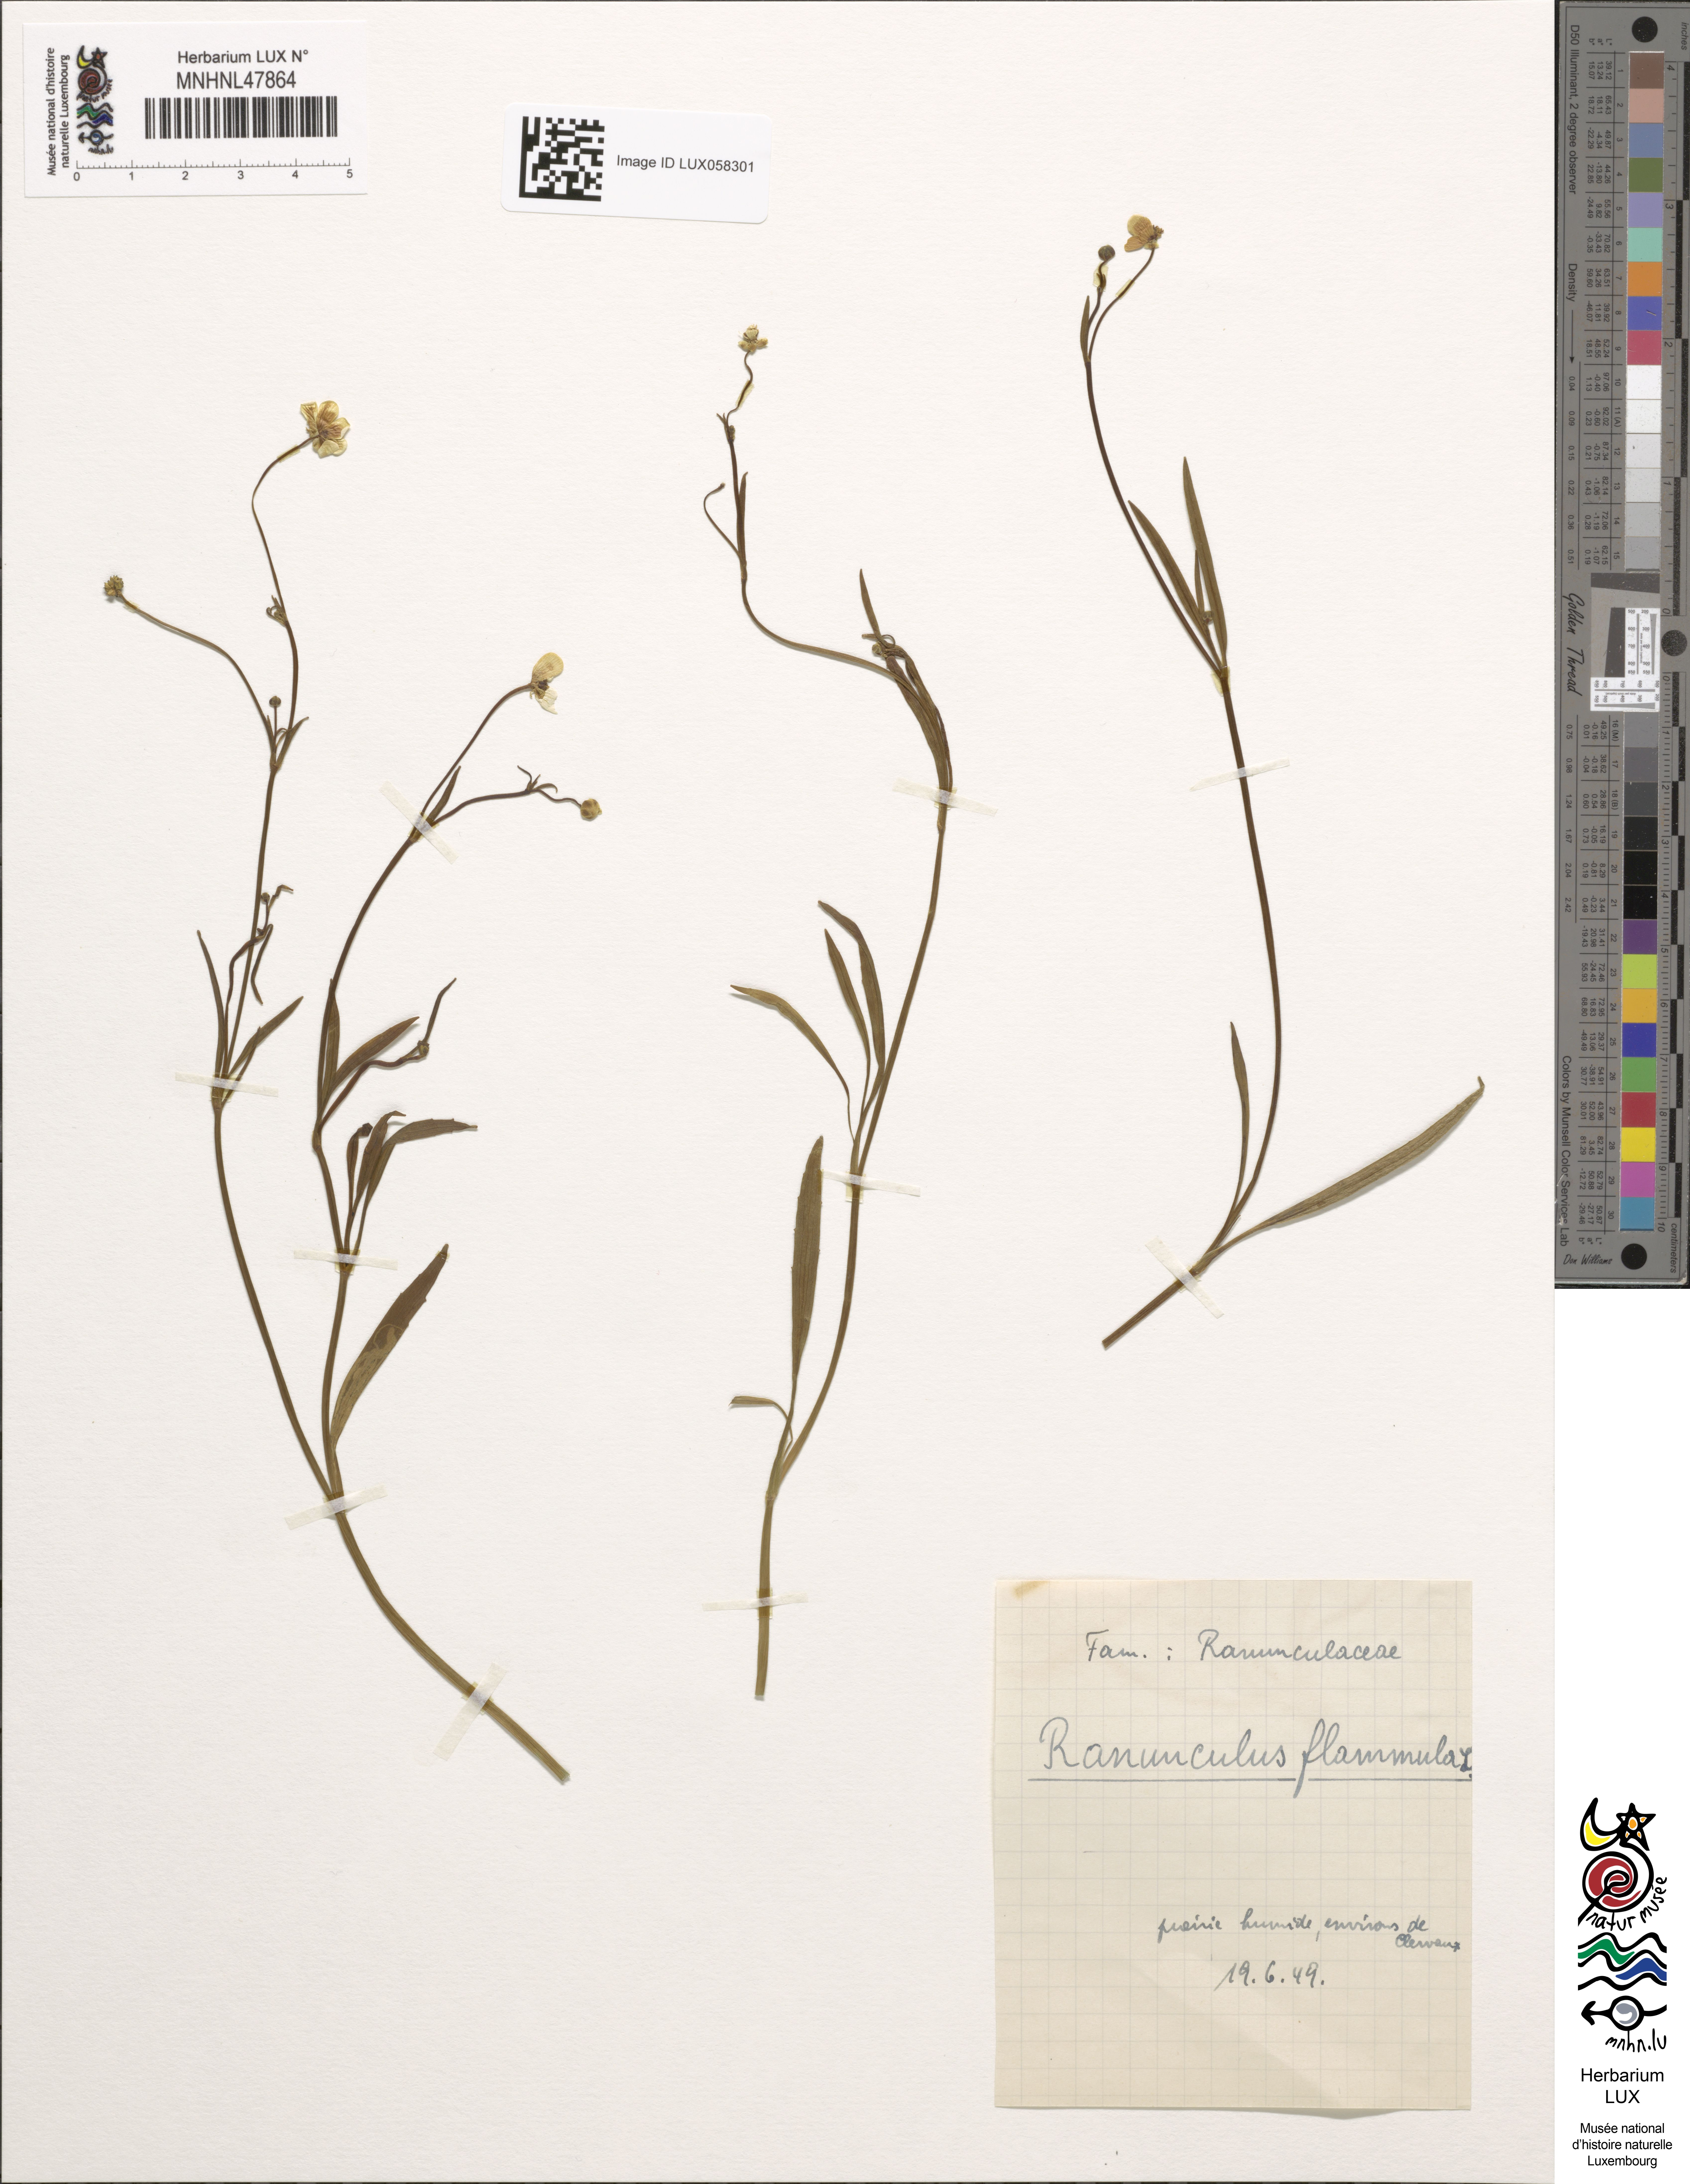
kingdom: Plantae
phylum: Tracheophyta
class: Magnoliopsida
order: Ranunculales
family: Ranunculaceae
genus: Ranunculus
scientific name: Ranunculus flammula
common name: Lesser spearwort
